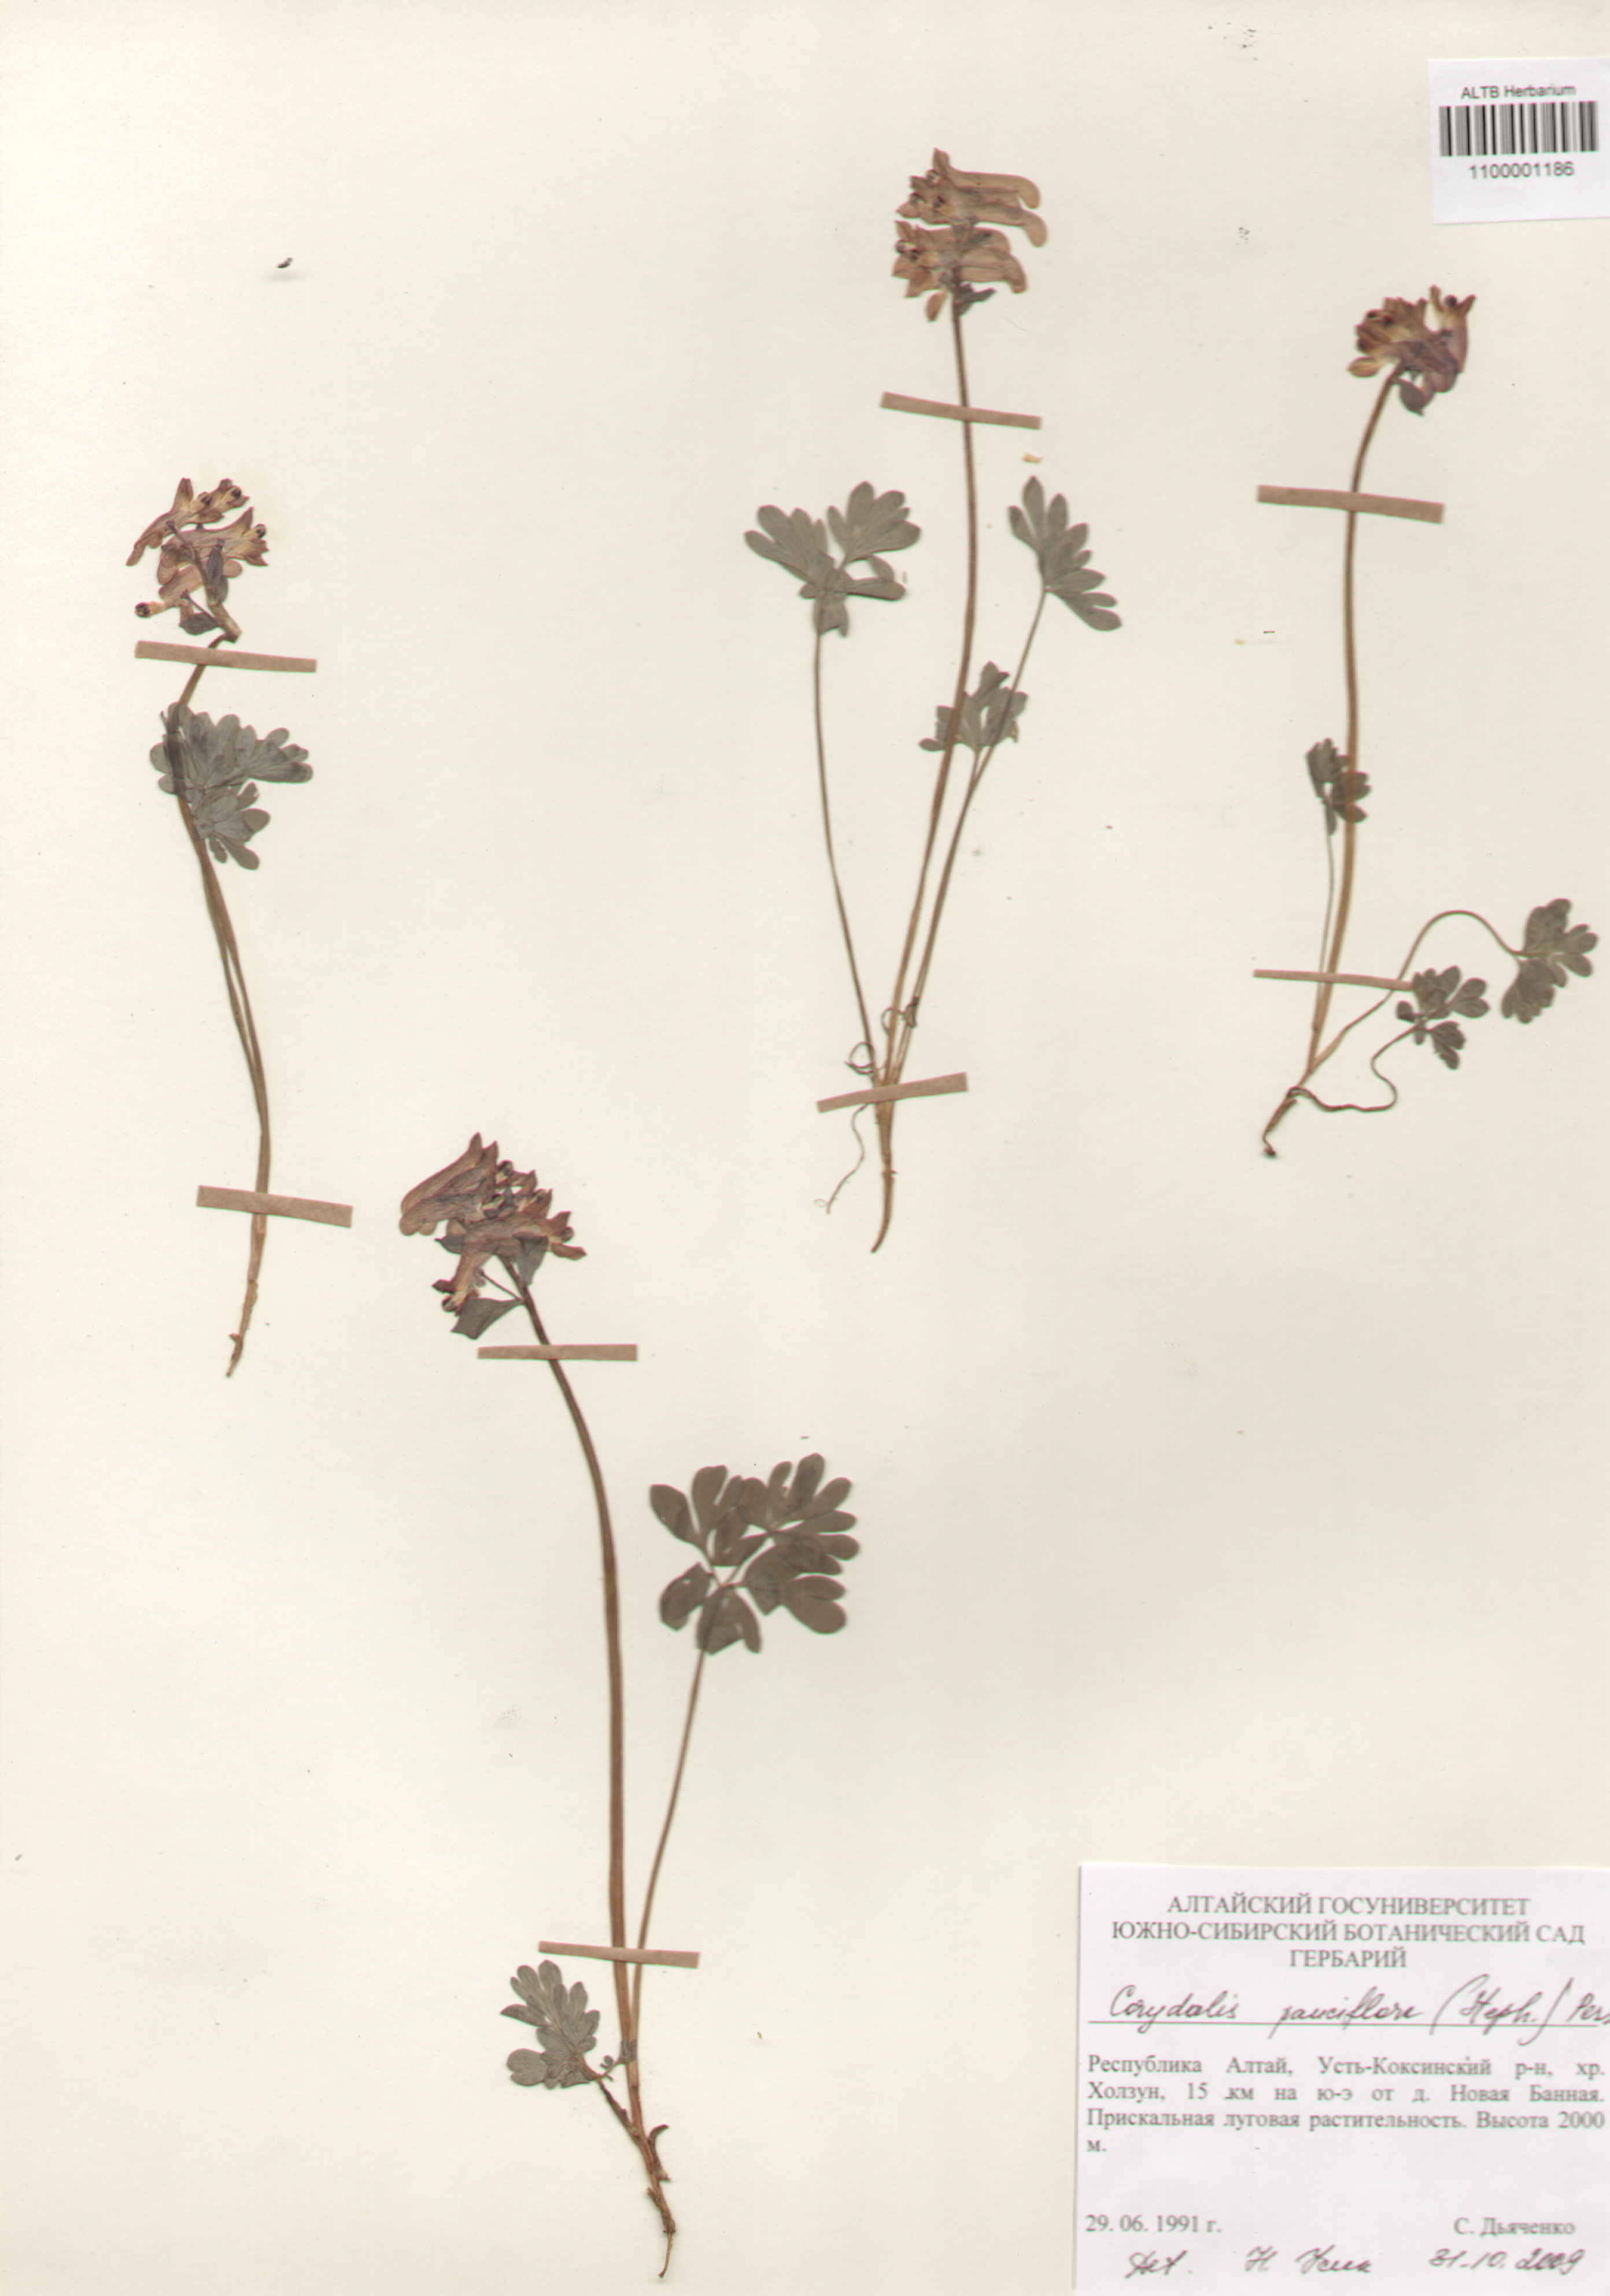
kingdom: Plantae
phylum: Tracheophyta
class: Magnoliopsida
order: Ranunculales
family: Papaveraceae
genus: Corydalis
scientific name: Corydalis pauciflora
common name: Blue corydalis
